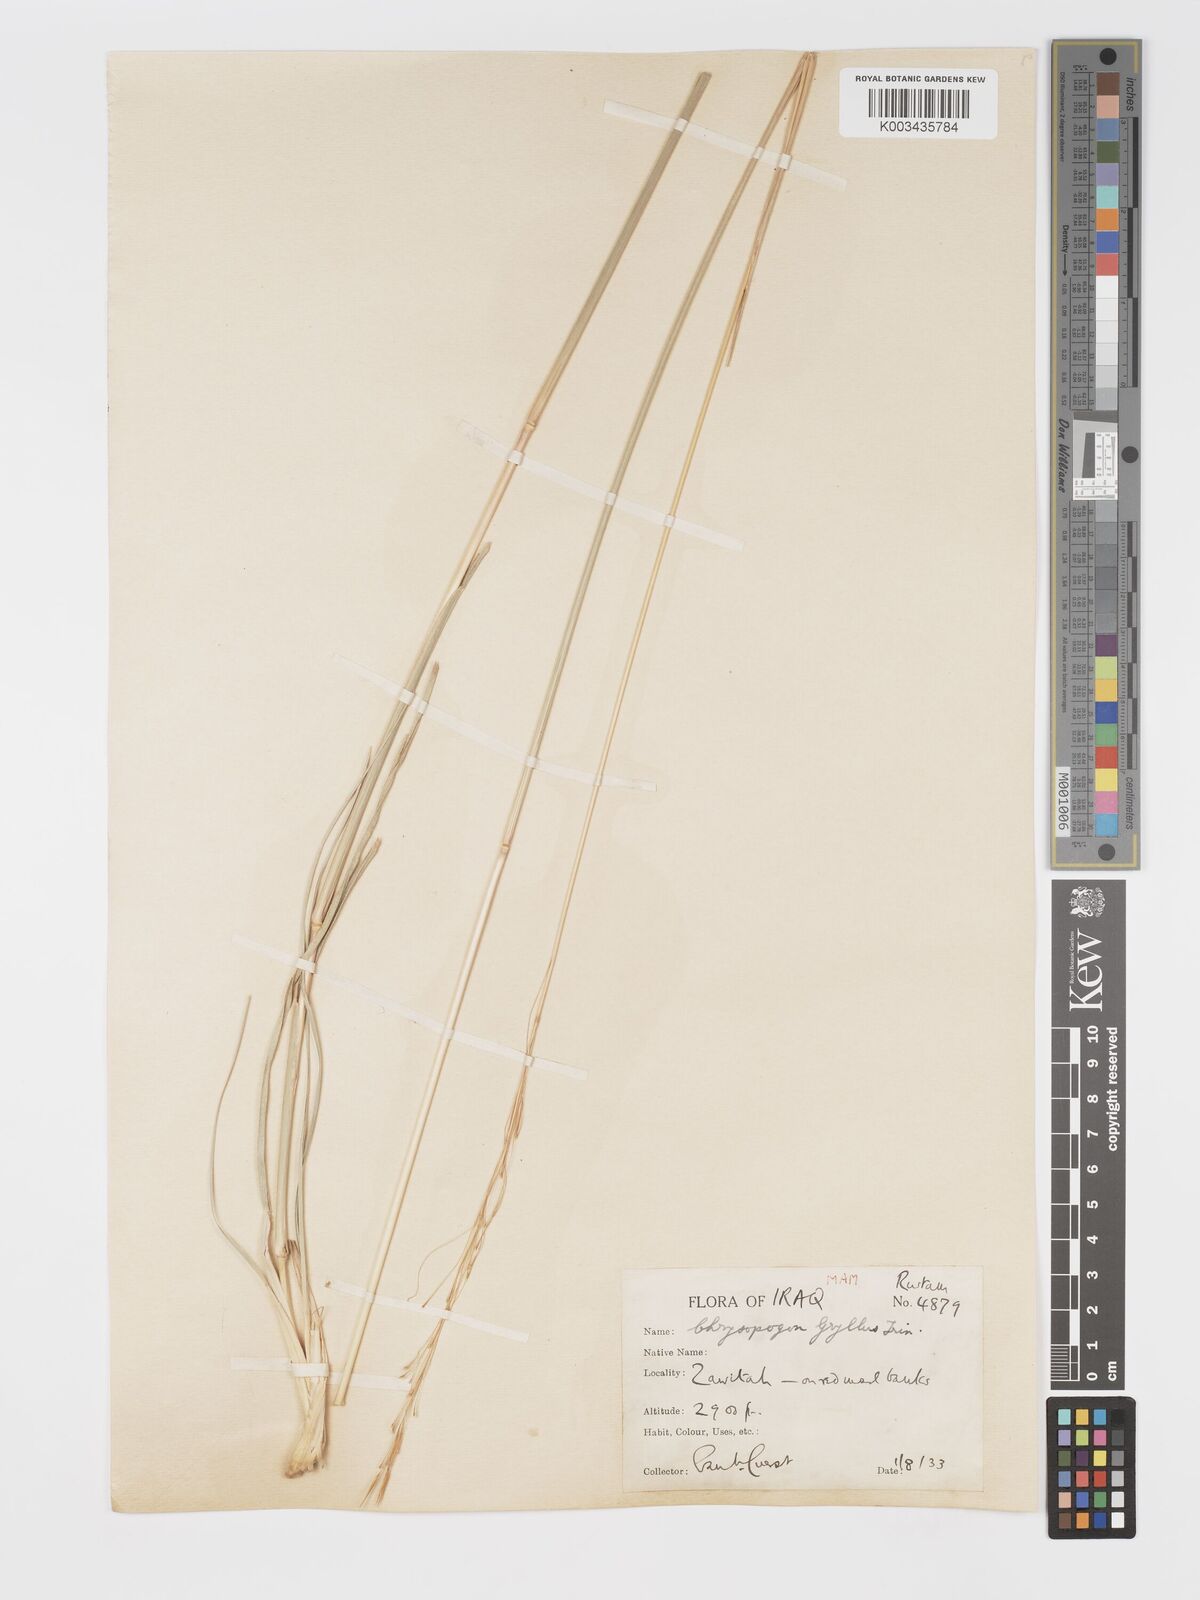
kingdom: Plantae
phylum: Tracheophyta
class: Liliopsida
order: Poales
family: Poaceae
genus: Chrysopogon
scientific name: Chrysopogon gryllus
